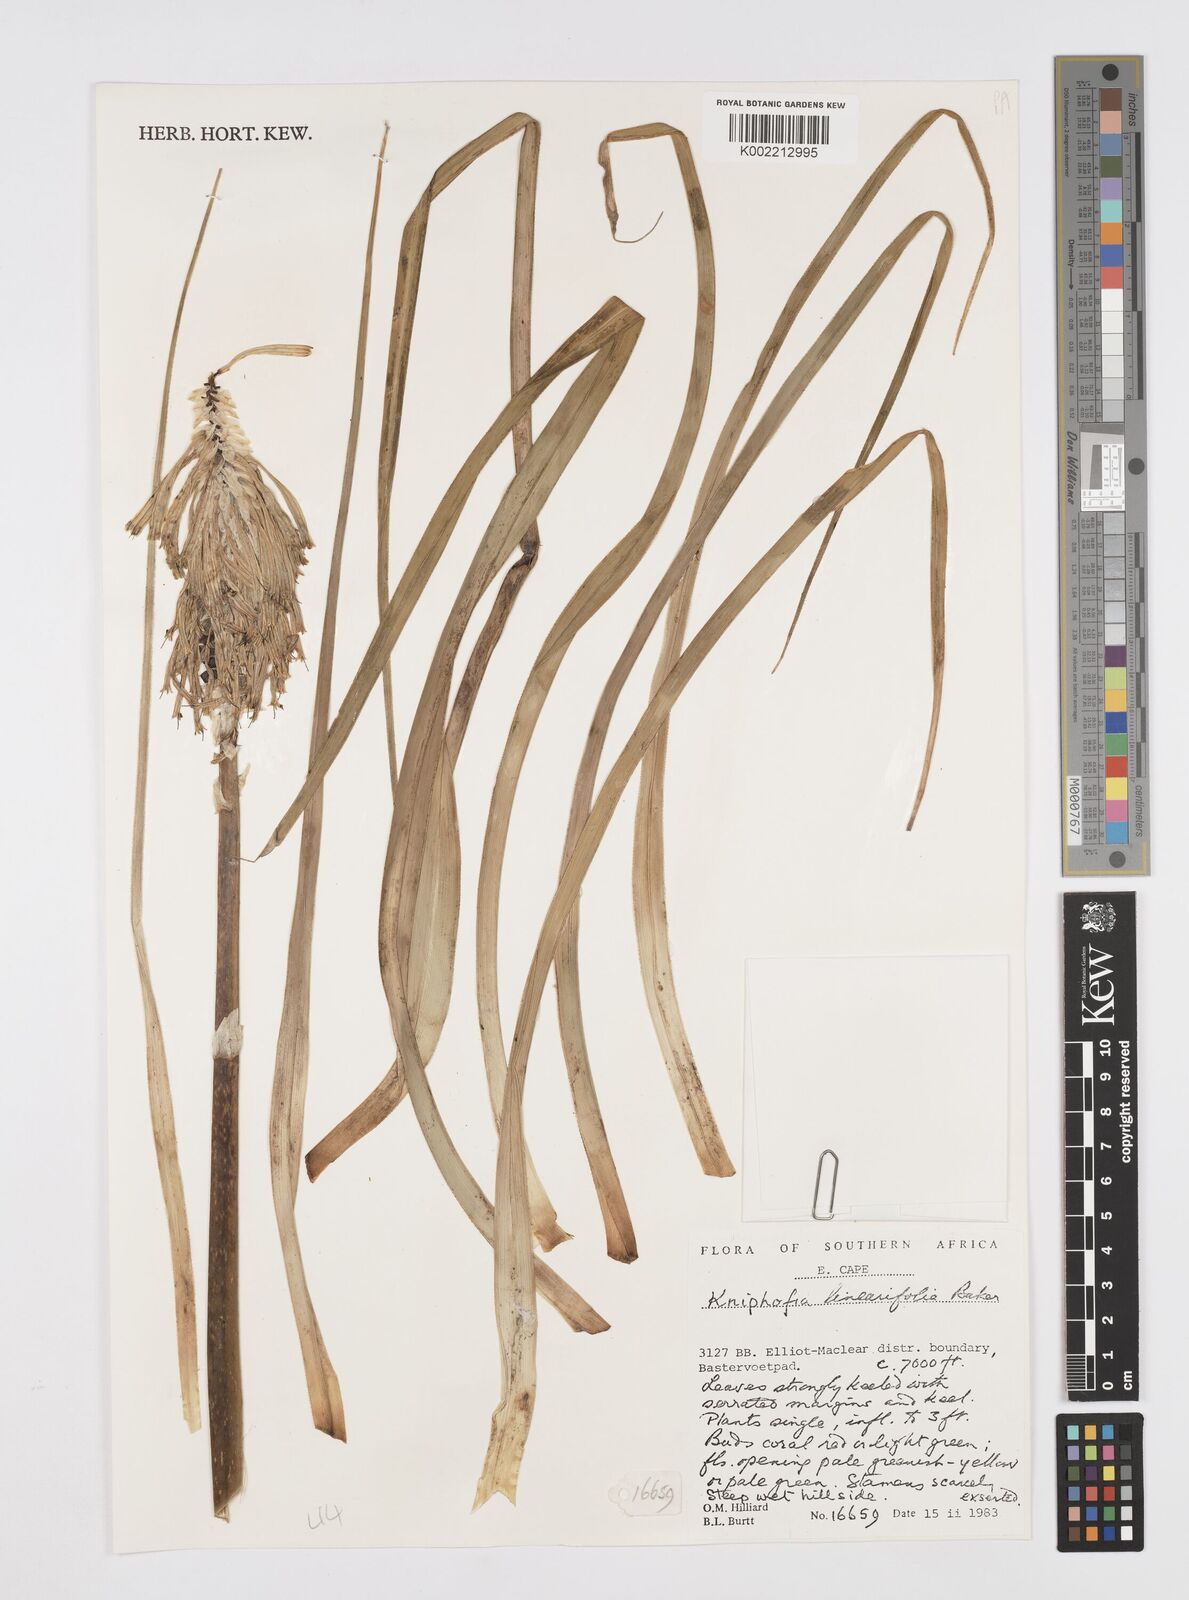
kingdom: Plantae
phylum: Tracheophyta
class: Liliopsida
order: Asparagales
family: Asphodelaceae
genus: Kniphofia
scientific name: Kniphofia linearifolia
